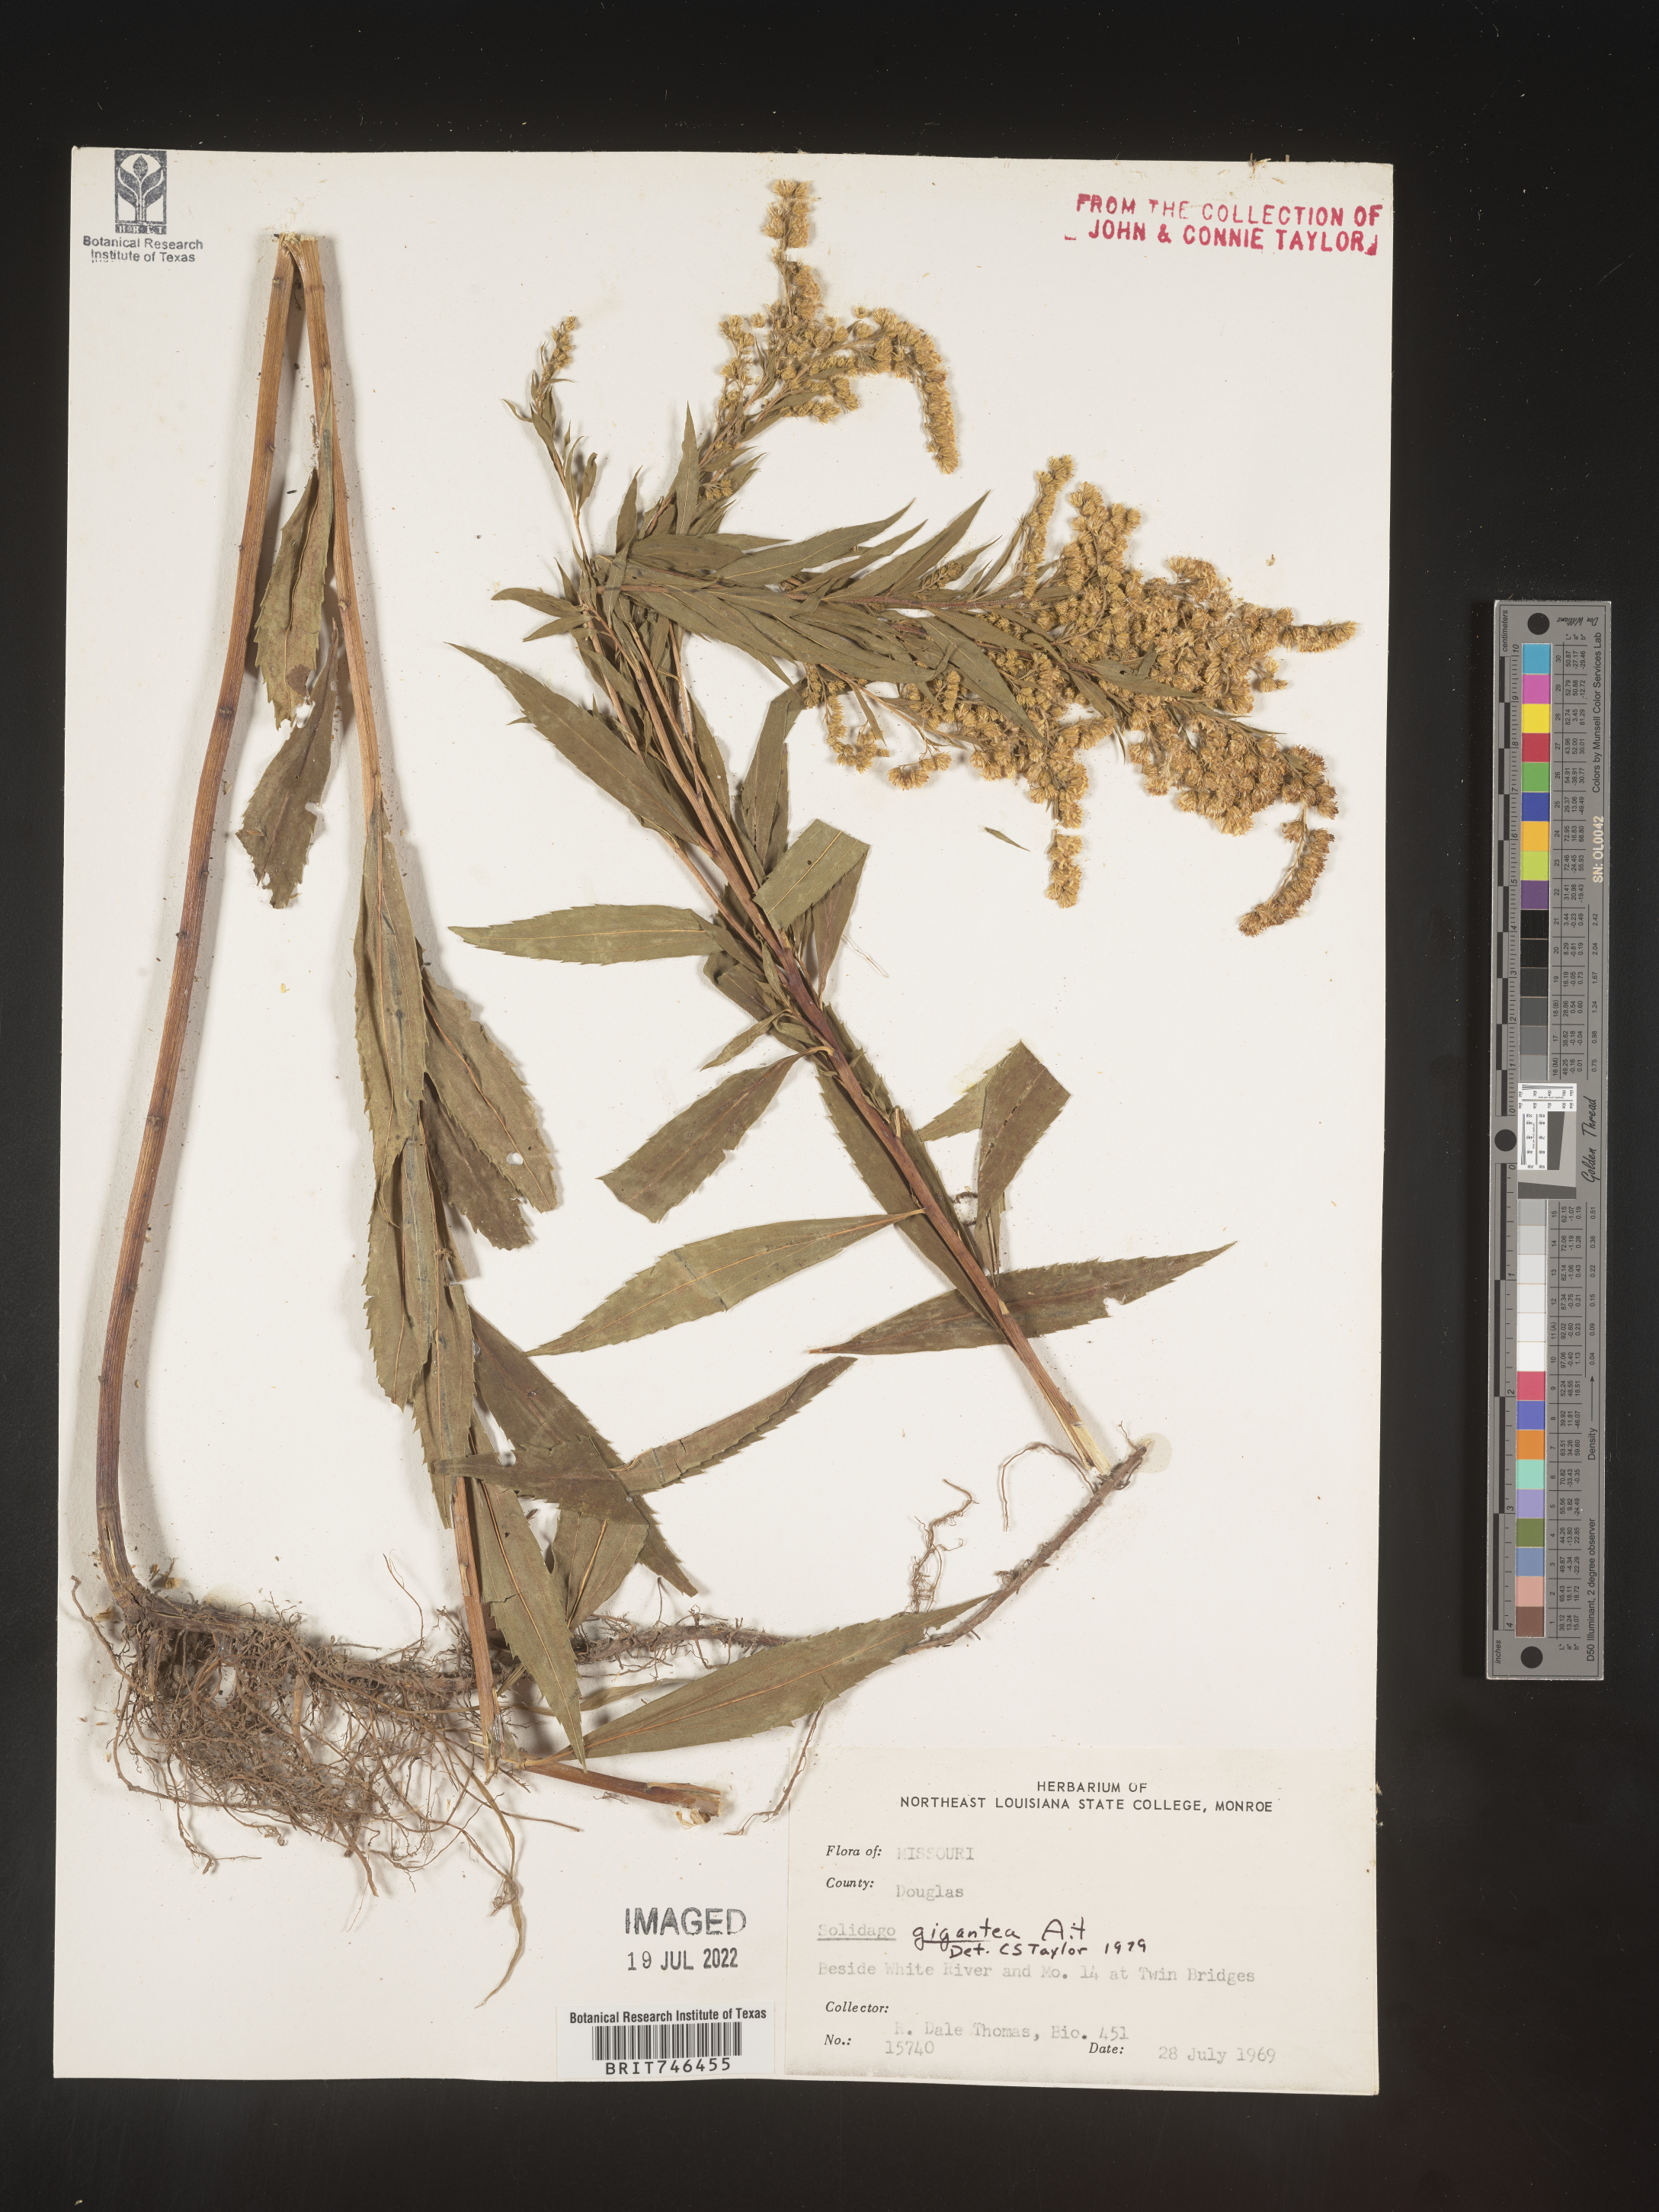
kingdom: Plantae
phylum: Tracheophyta
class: Magnoliopsida
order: Asterales
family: Asteraceae
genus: Solidago
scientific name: Solidago gigantea
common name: Giant goldenrod
